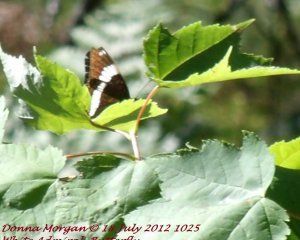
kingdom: Animalia
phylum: Arthropoda
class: Insecta
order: Lepidoptera
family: Nymphalidae
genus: Limenitis
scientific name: Limenitis arthemis
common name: Red-spotted Admiral
